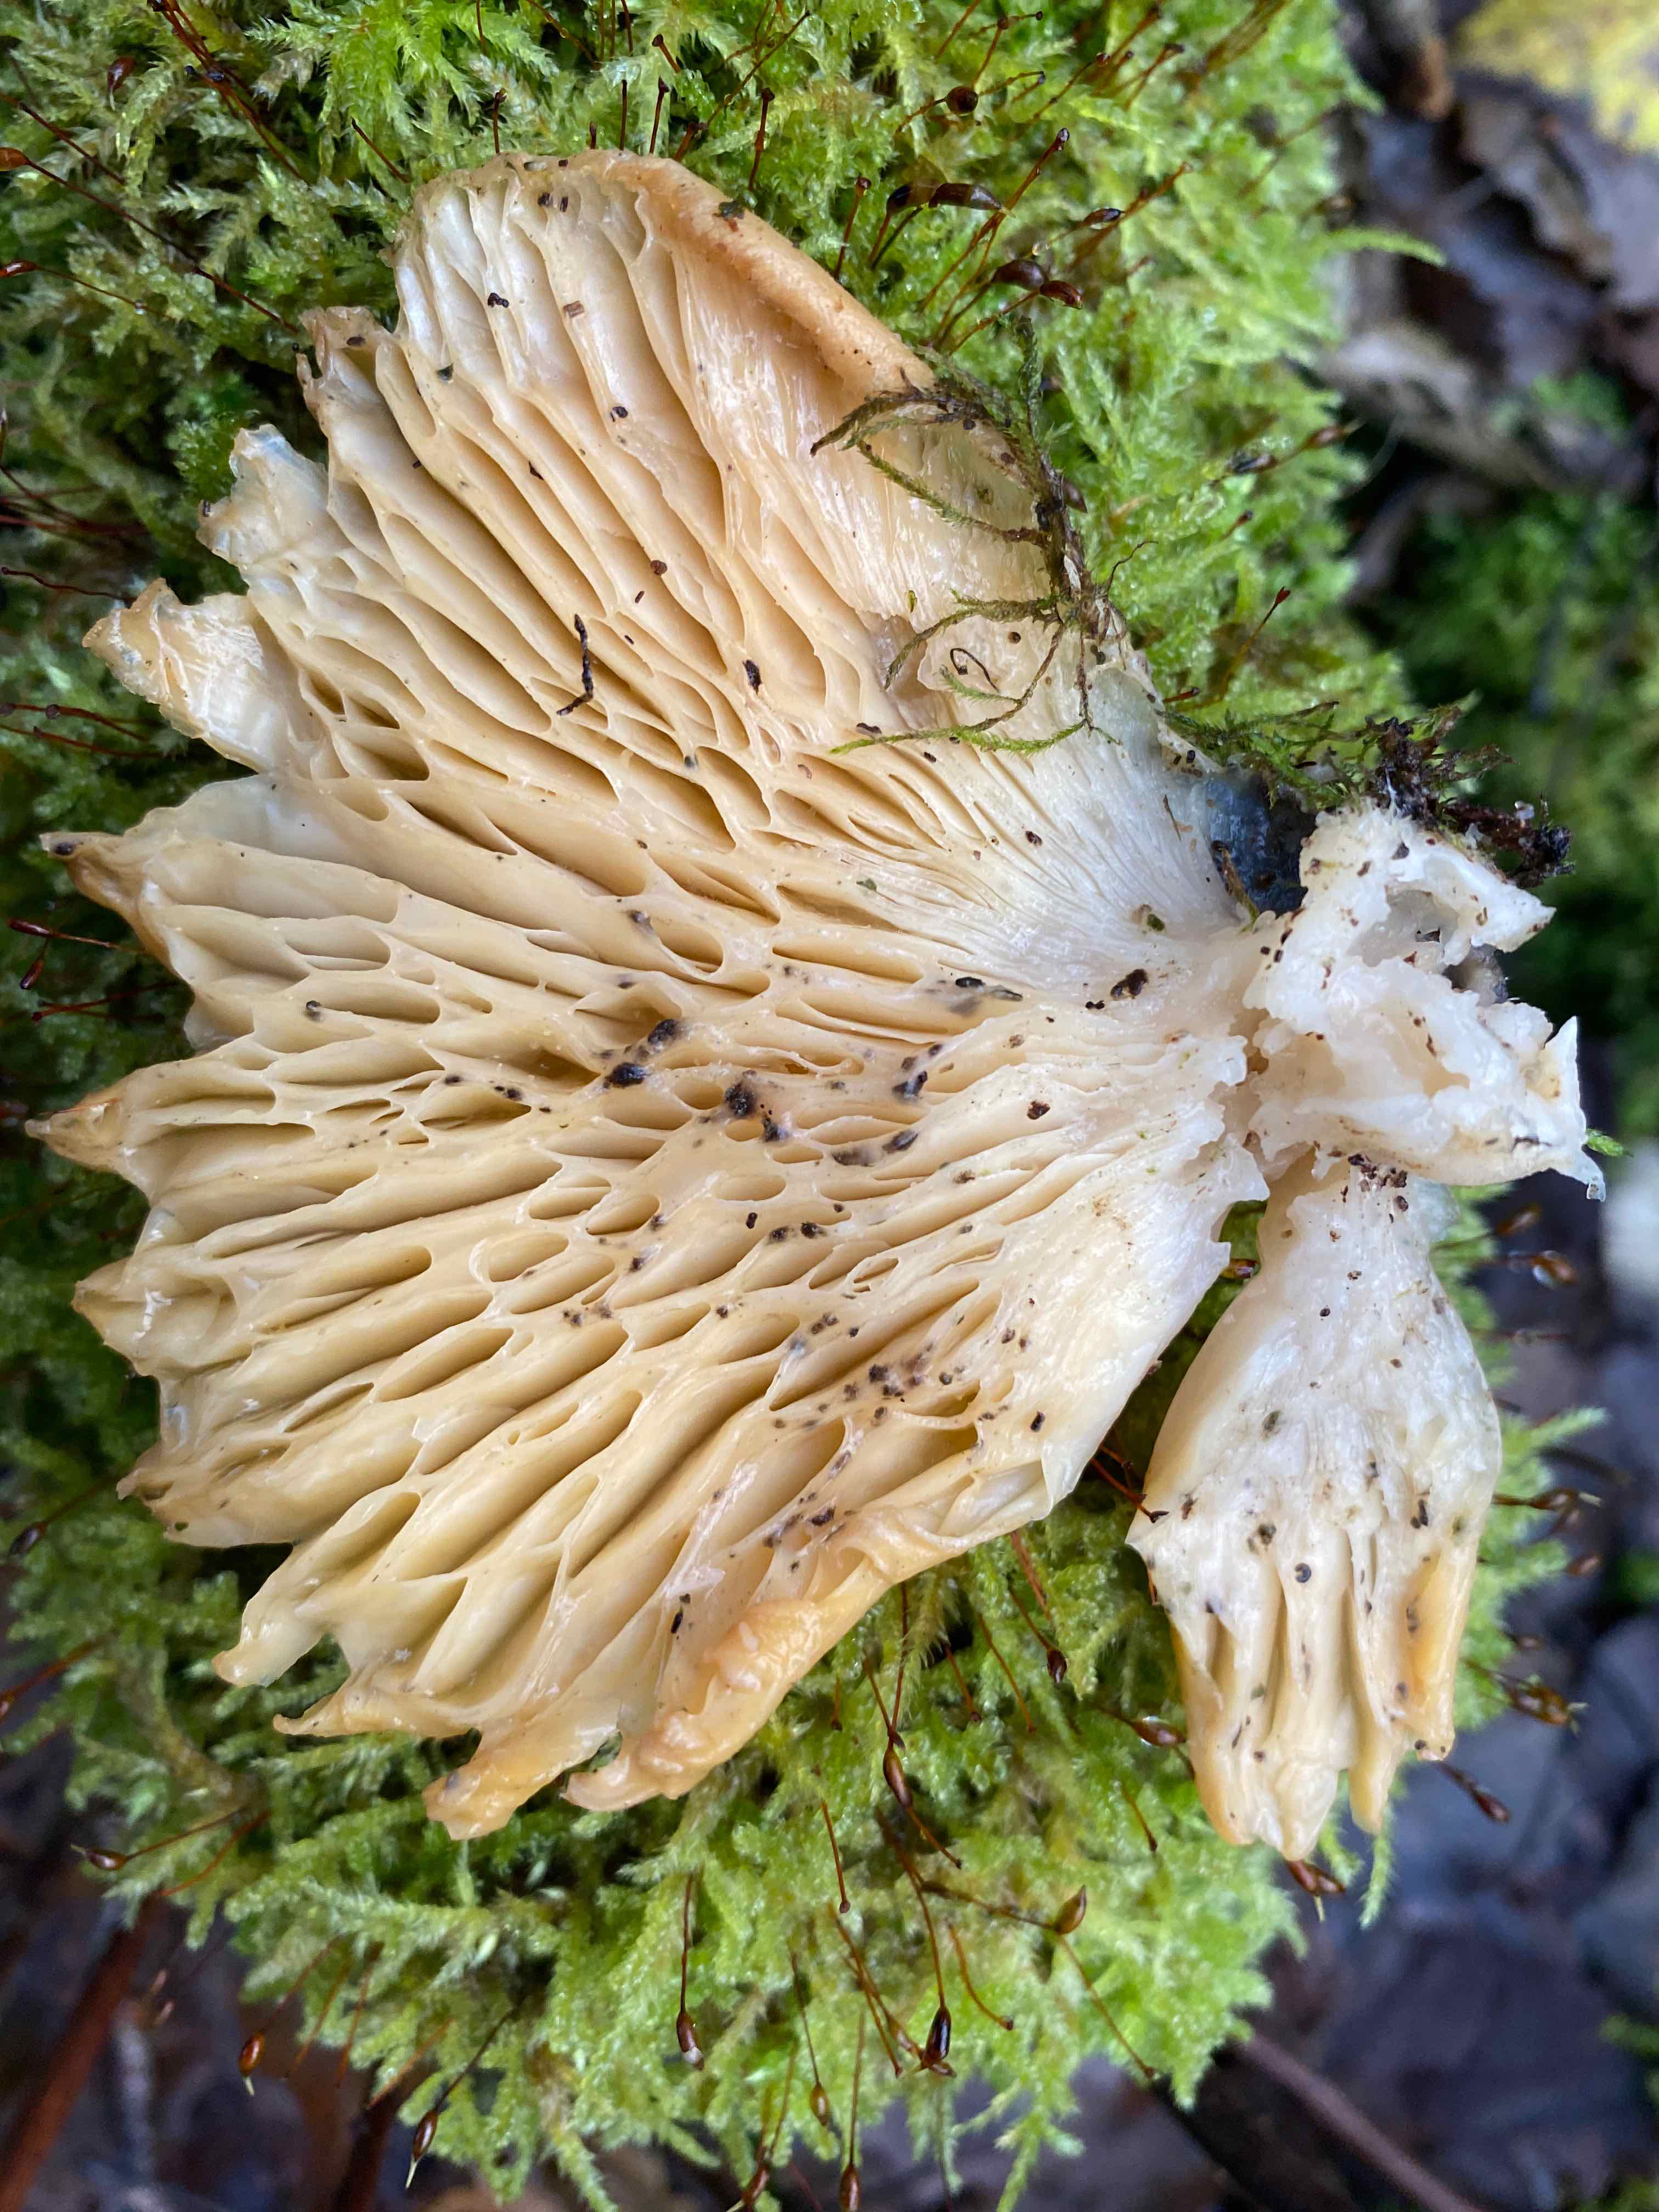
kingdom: Fungi
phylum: Basidiomycota
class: Agaricomycetes
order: Agaricales
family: Pleurotaceae
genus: Pleurotus
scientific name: Pleurotus
